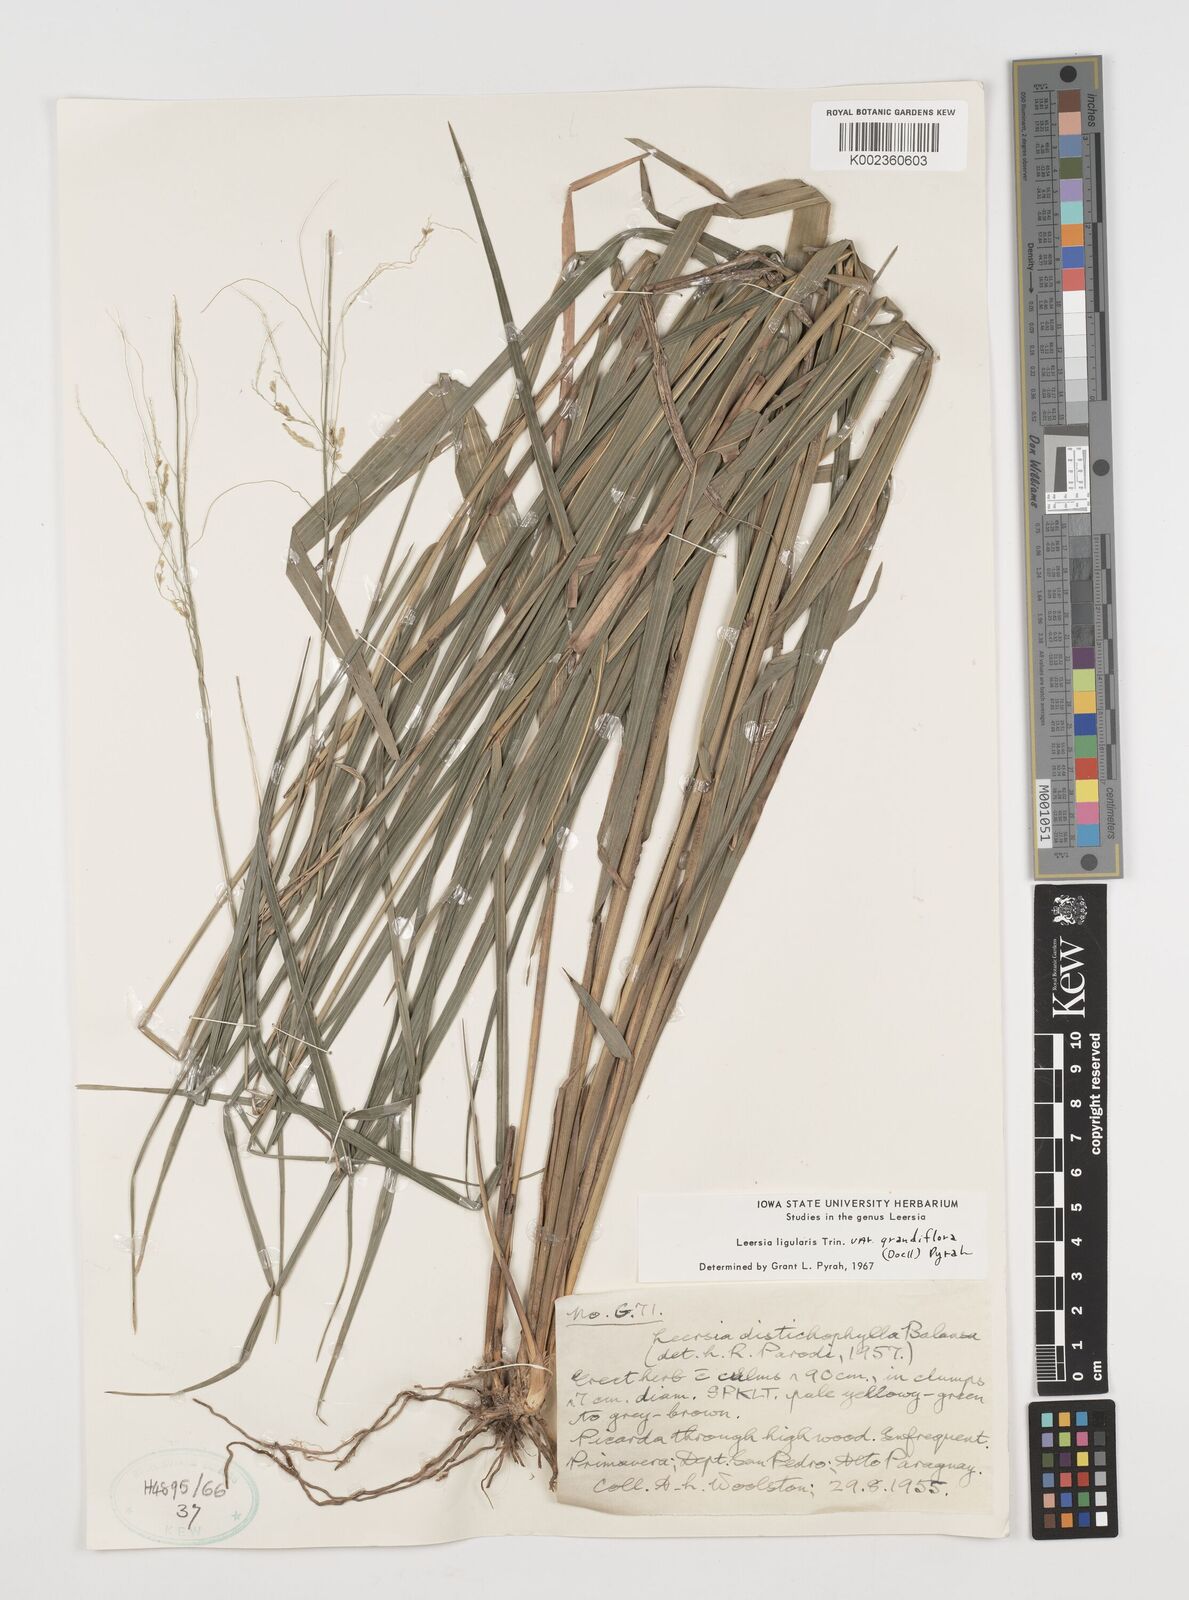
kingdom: Plantae
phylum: Tracheophyta
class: Liliopsida
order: Poales
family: Poaceae
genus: Leersia
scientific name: Leersia ligularis
